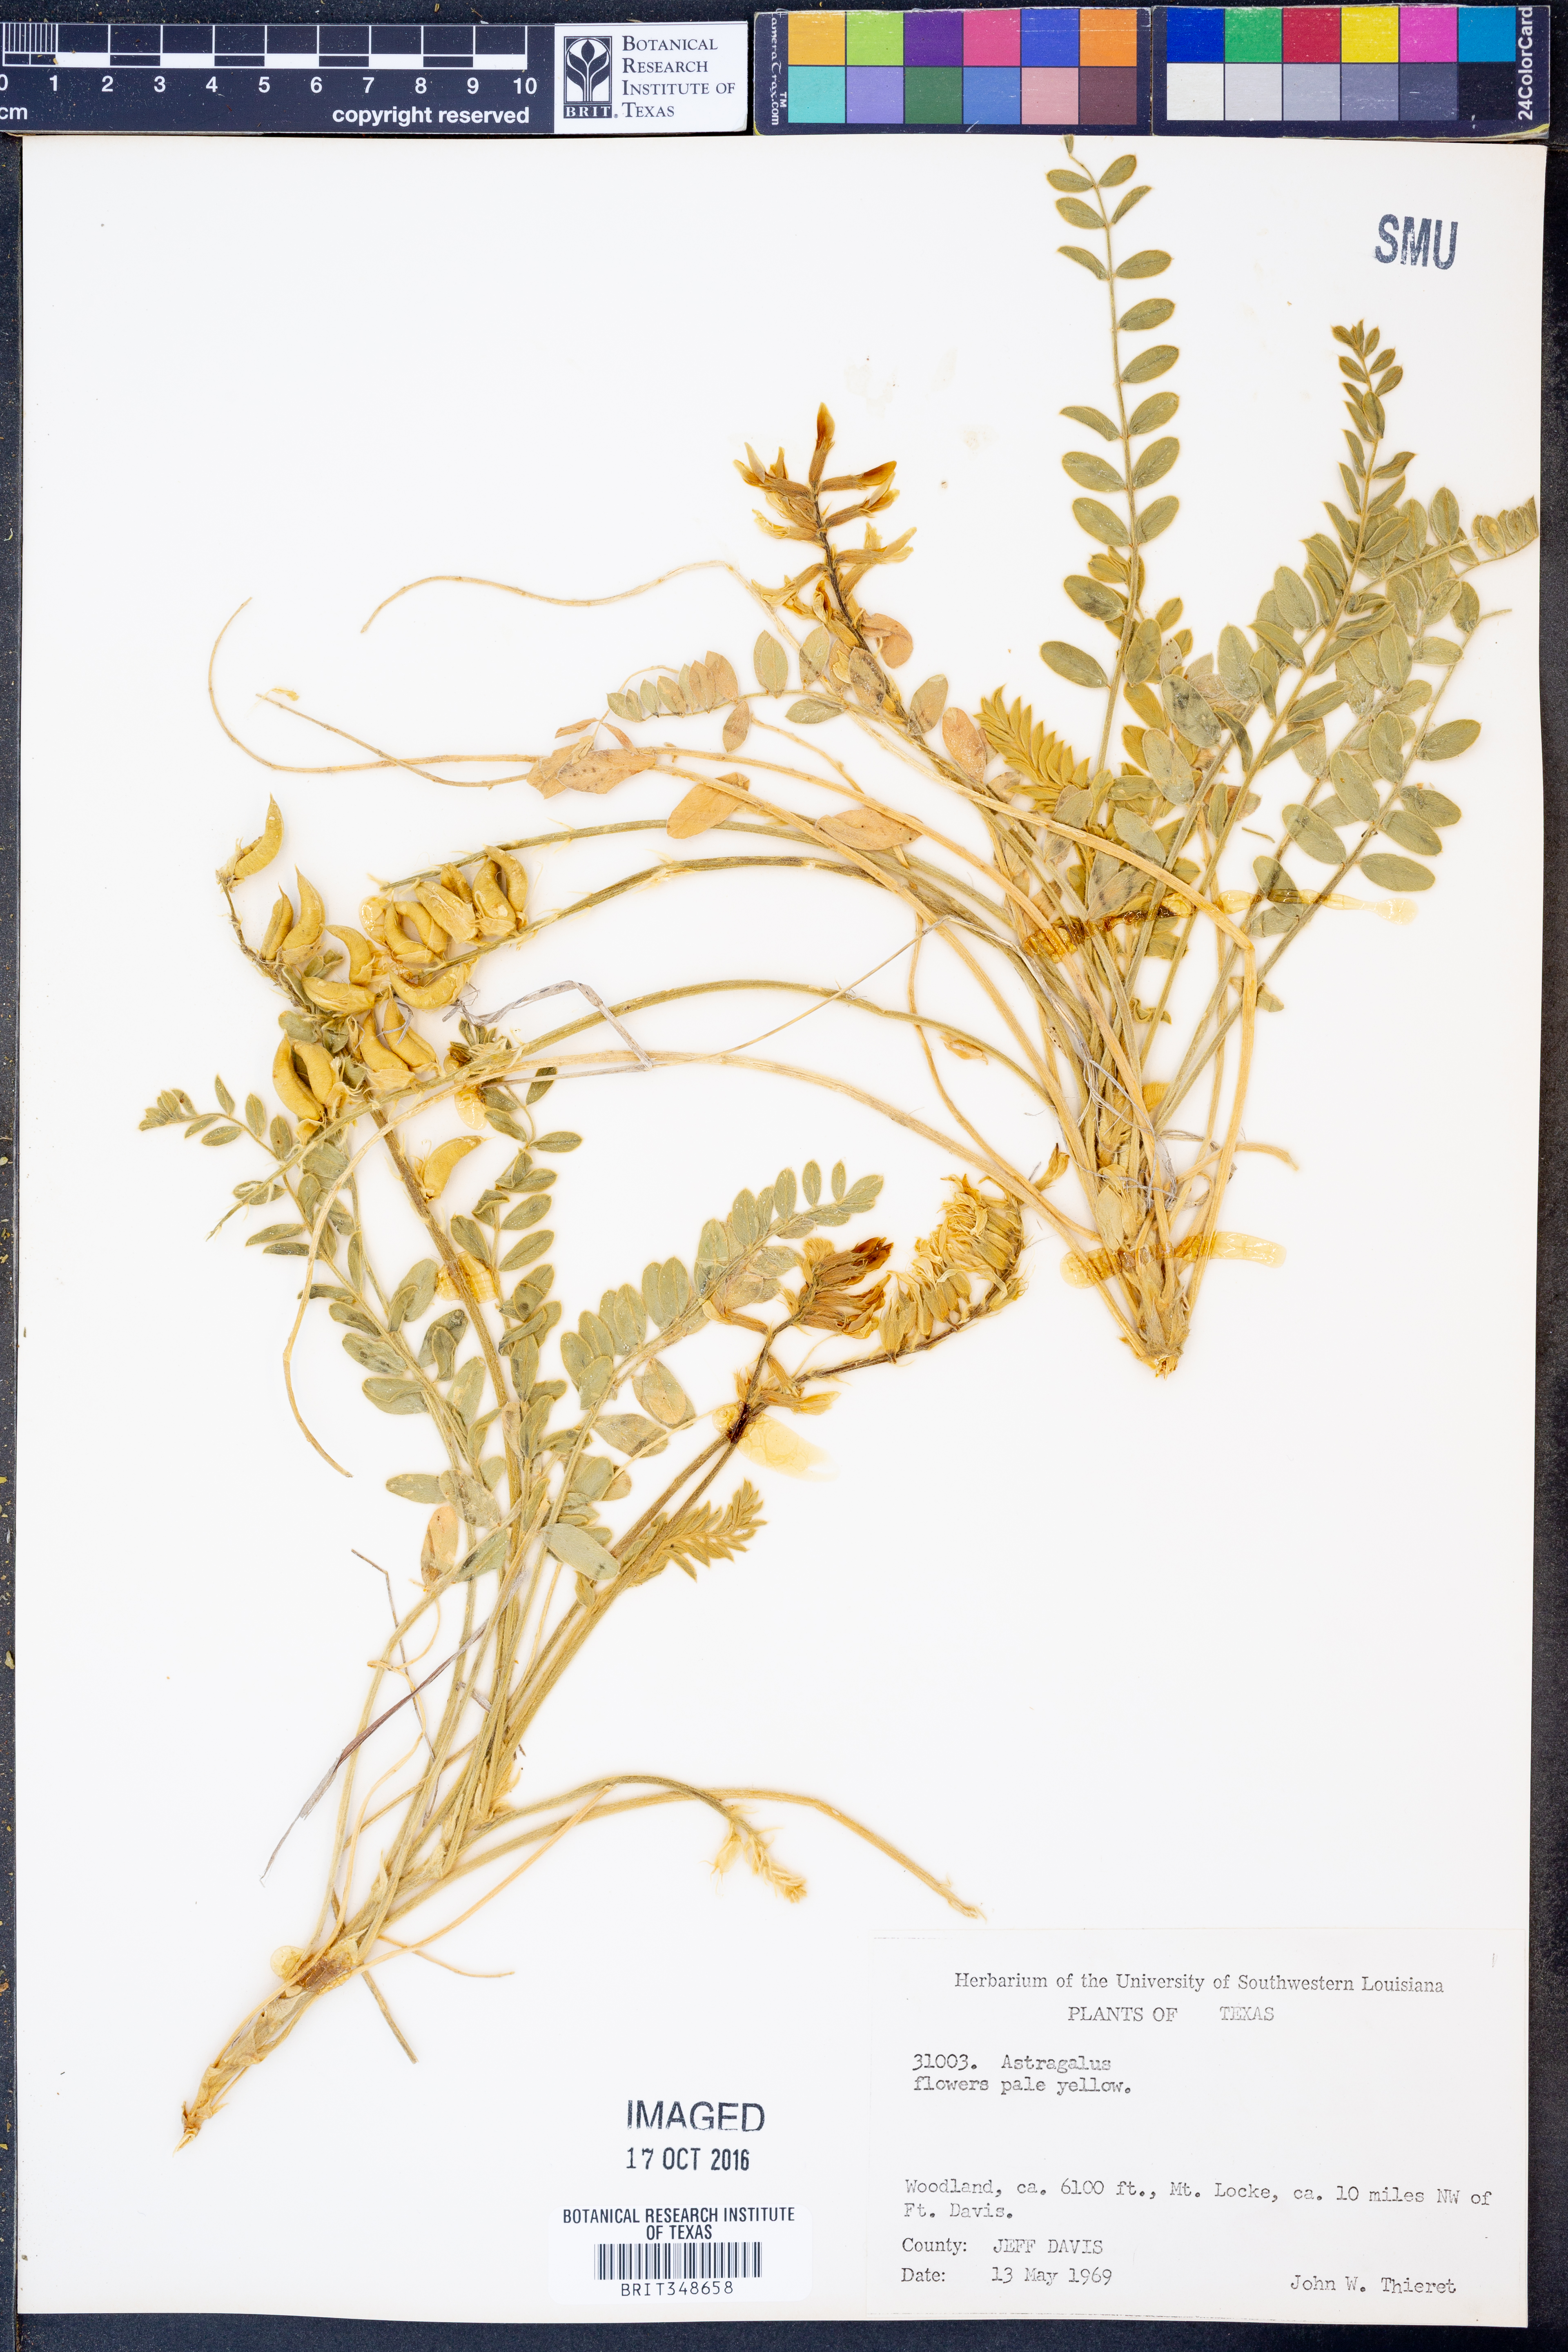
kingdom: Plantae
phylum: Tracheophyta
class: Magnoliopsida
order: Fabales
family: Fabaceae
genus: Astragalus
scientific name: Astragalus
